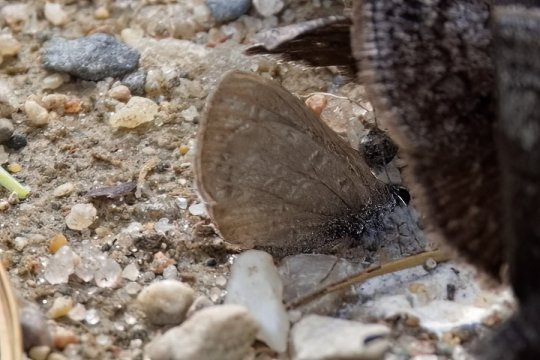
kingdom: Animalia
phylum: Arthropoda
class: Insecta
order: Lepidoptera
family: Lycaenidae
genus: Celastrina
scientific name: Celastrina lucia
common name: Northern Spring Azure
